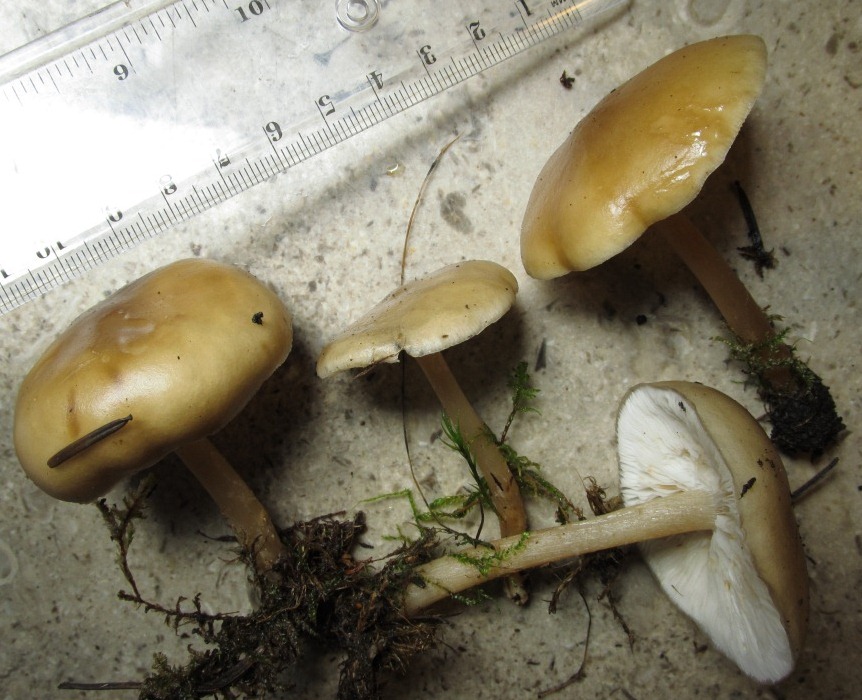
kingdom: Fungi
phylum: Basidiomycota
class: Agaricomycetes
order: Agaricales
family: Tricholomataceae
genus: Melanoleuca
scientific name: Melanoleuca microcephala
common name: spinkel munkehat
